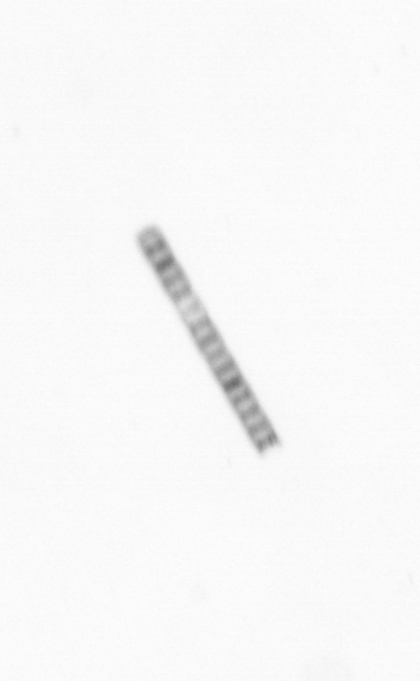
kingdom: Chromista
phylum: Ochrophyta
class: Bacillariophyceae
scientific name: Bacillariophyceae
